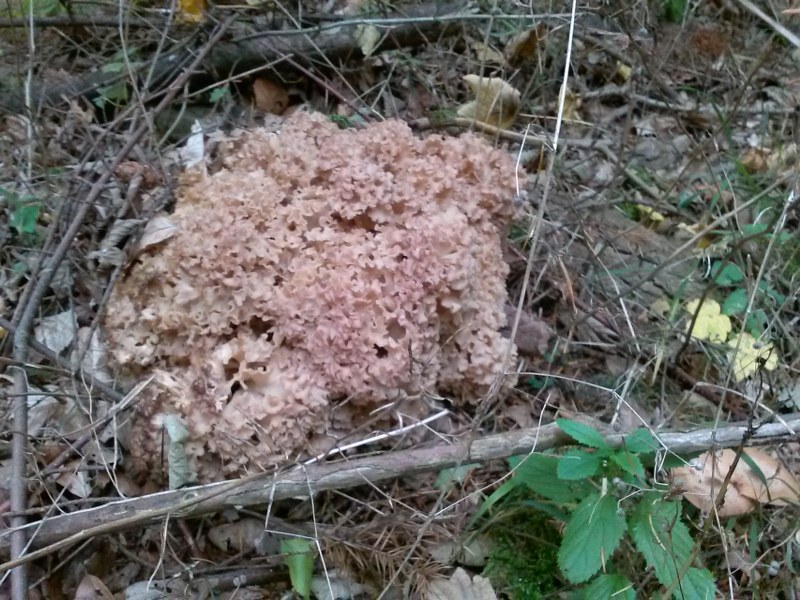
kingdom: Fungi
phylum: Basidiomycota
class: Agaricomycetes
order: Polyporales
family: Sparassidaceae
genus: Sparassis
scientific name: Sparassis crispa
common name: kruset blomkålssvamp
